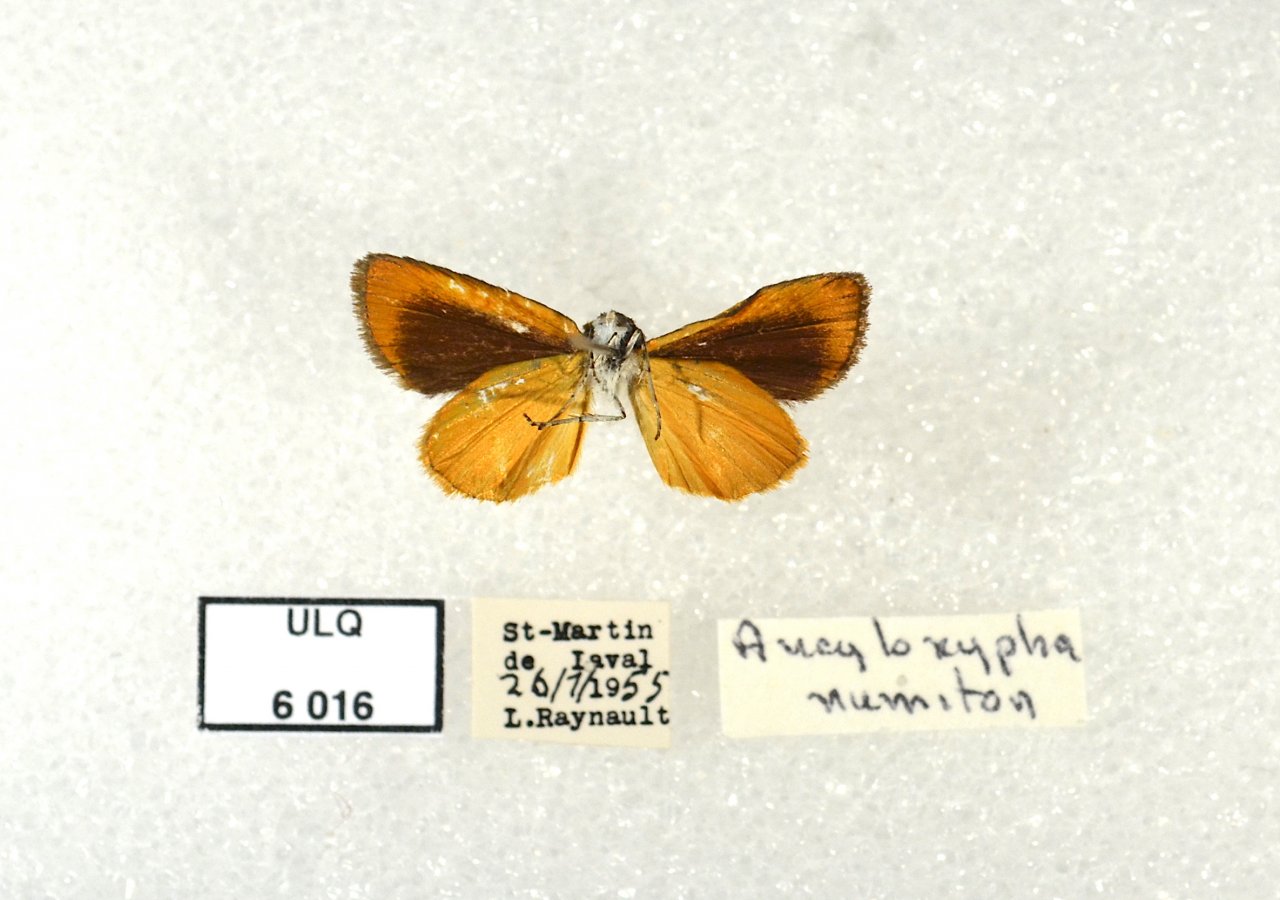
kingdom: Animalia
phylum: Arthropoda
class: Insecta
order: Lepidoptera
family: Hesperiidae
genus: Ancyloxypha
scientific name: Ancyloxypha numitor
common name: Least Skipper
